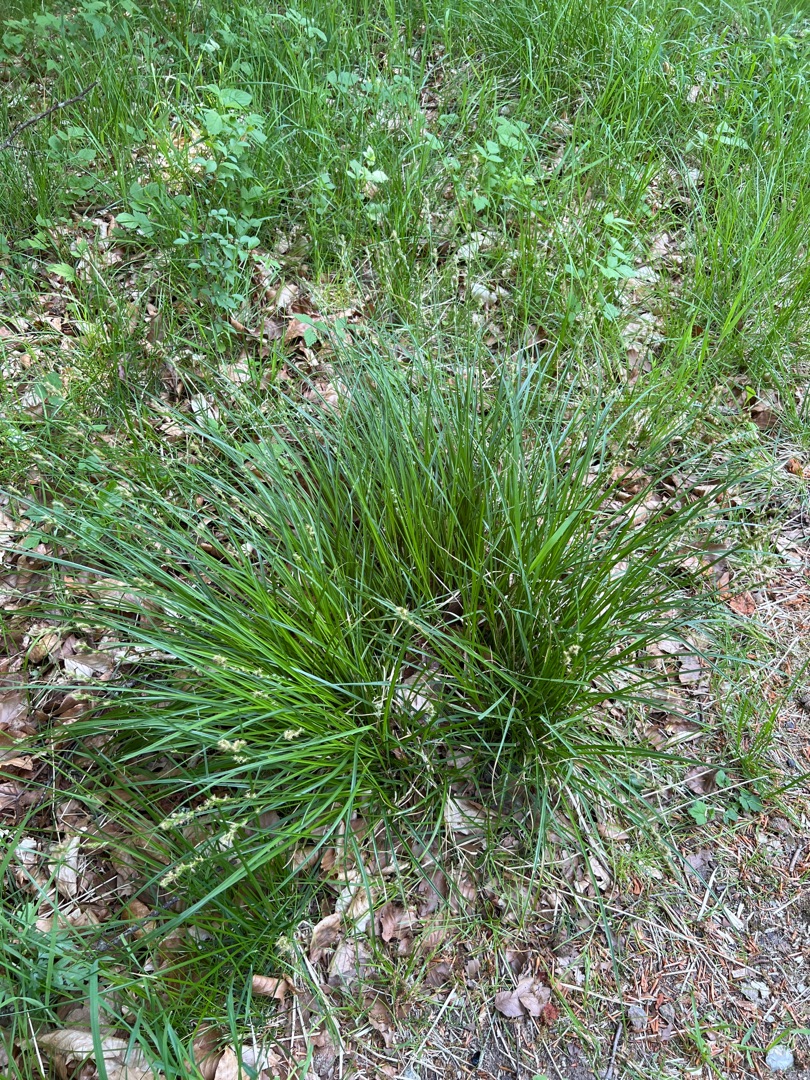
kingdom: Plantae
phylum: Tracheophyta
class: Liliopsida
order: Poales
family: Cyperaceae
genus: Carex
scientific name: Carex leersii
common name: Mellembrudt star (underart)
